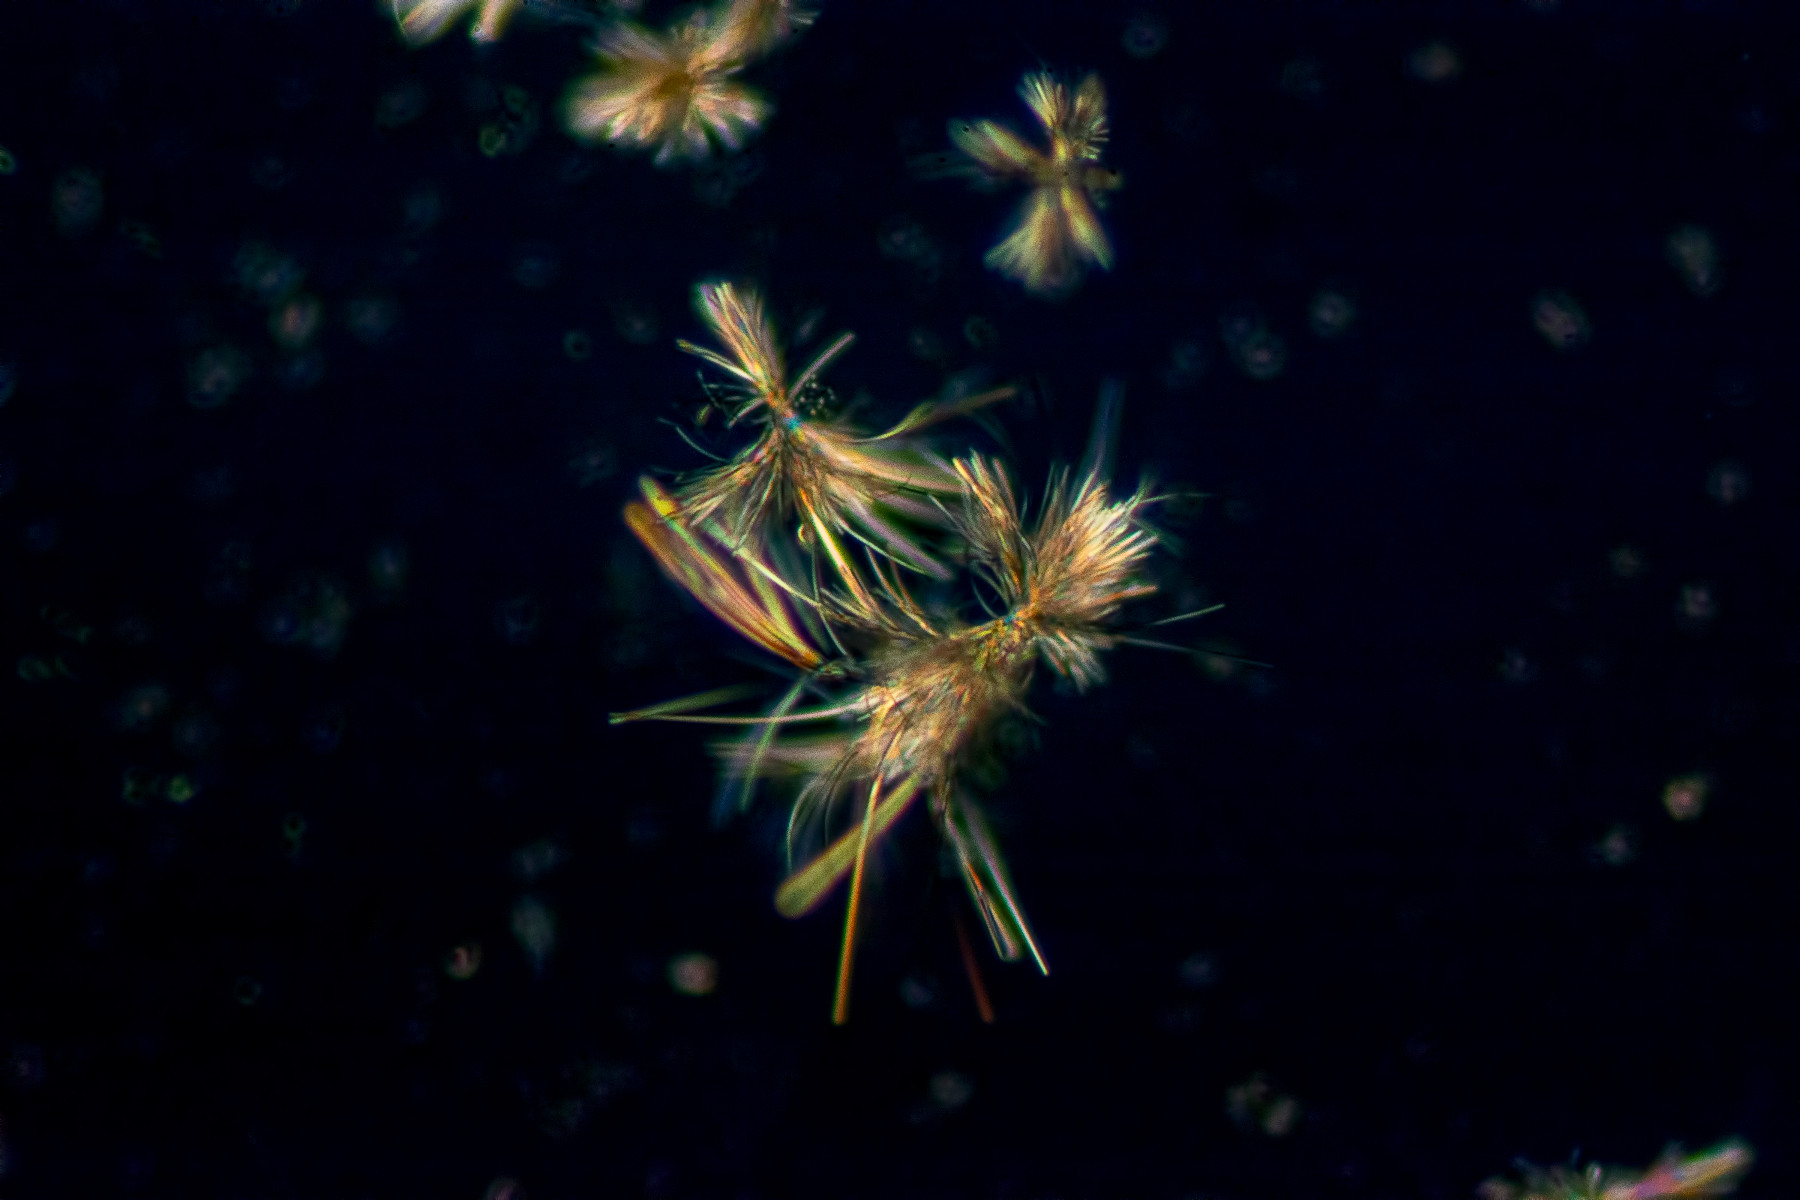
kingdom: Fungi
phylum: Ascomycota
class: Lecanoromycetes
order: Lecanorales
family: Cladoniaceae
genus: Cladonia
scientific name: Cladonia cryptochlorophaea
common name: kalirød bægerlav
